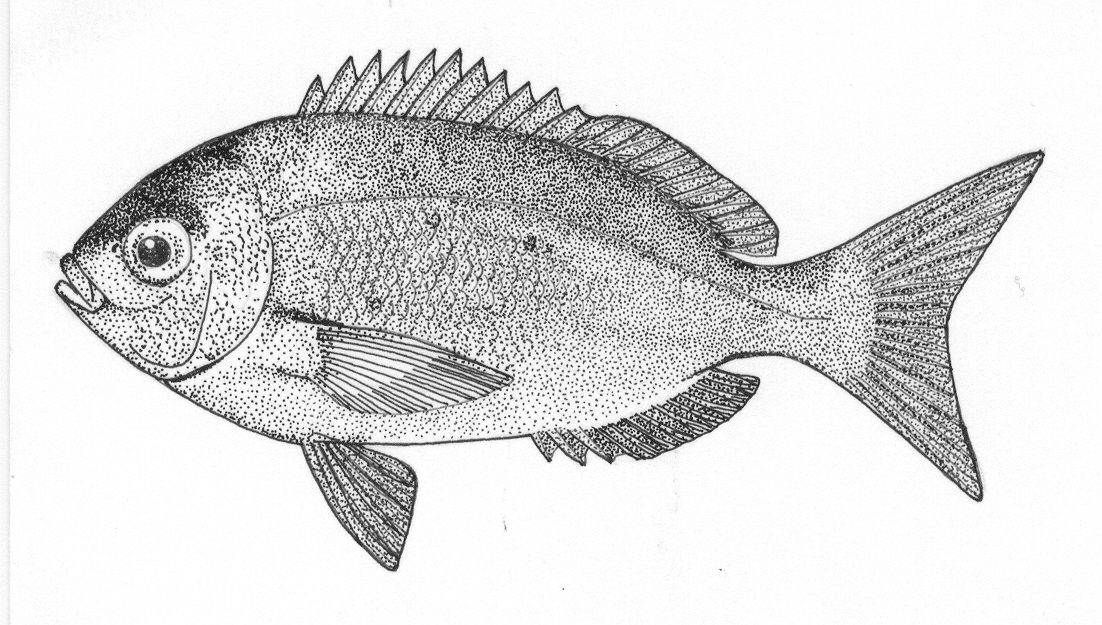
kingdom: Animalia
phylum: Chordata
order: Perciformes
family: Sparidae
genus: Pachymetopon
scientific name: Pachymetopon aeneum
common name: Blue hottentot
